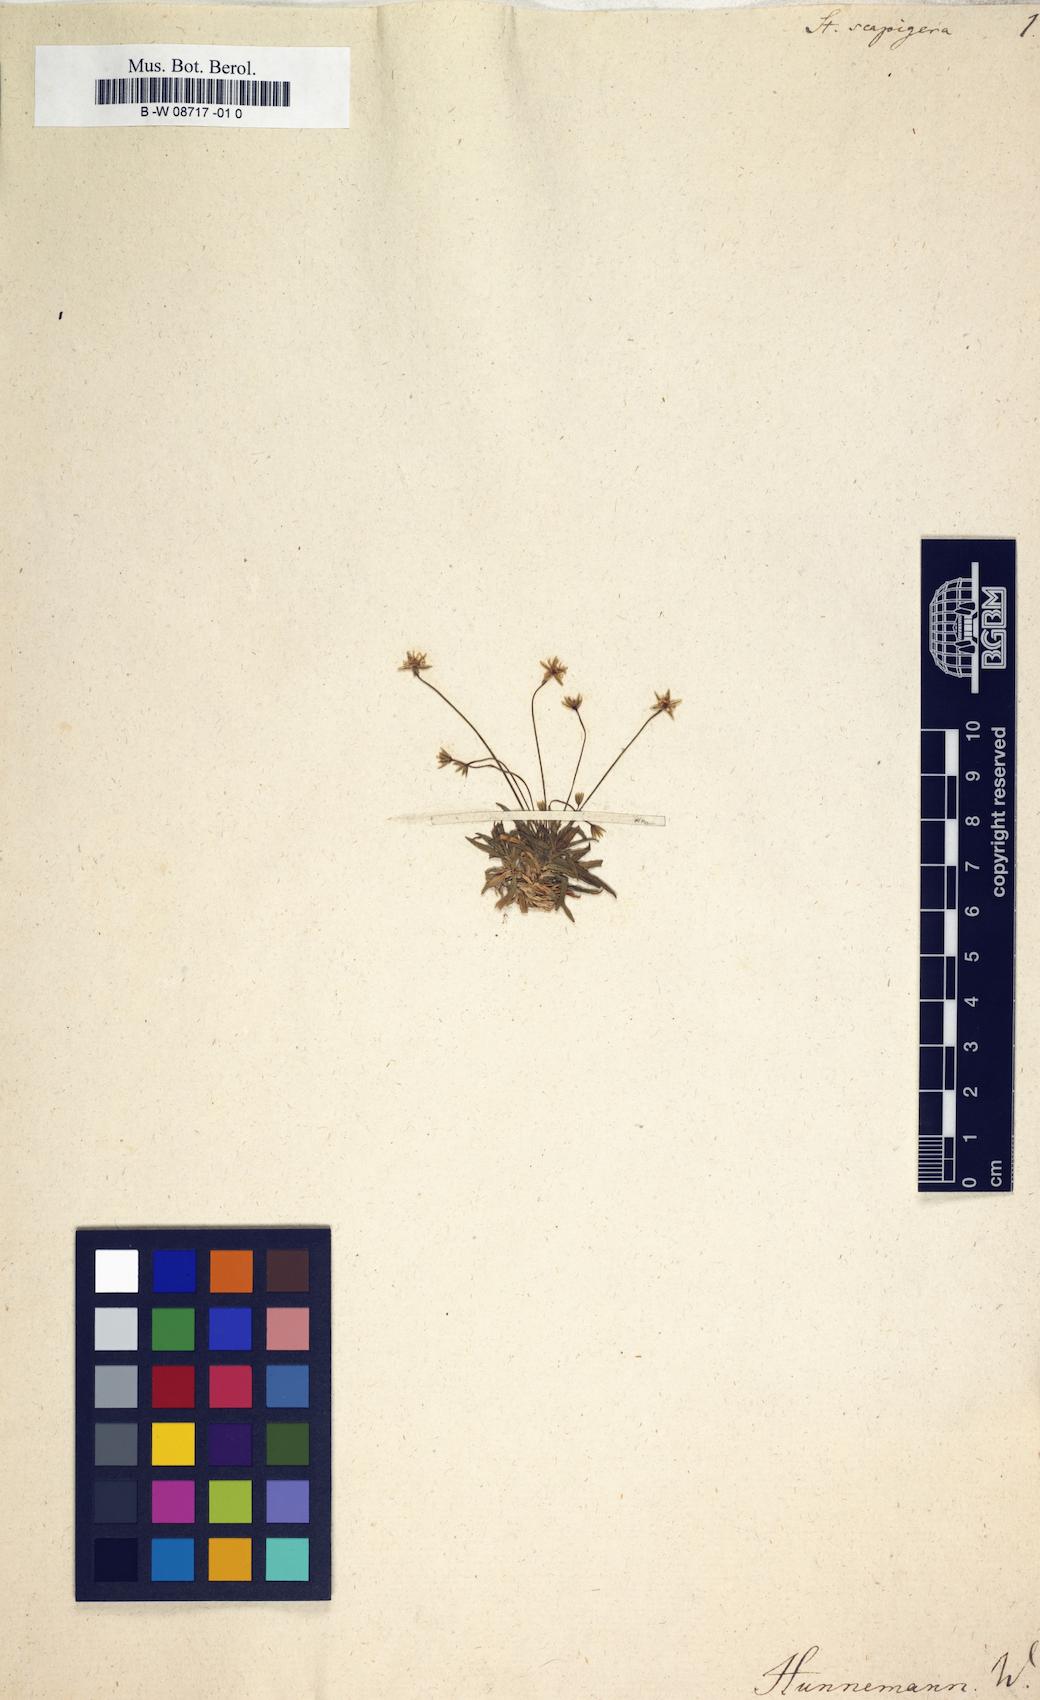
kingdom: Plantae
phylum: Tracheophyta
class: Magnoliopsida
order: Caryophyllales
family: Caryophyllaceae
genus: Stellaria
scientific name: Stellaria graminea
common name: Grass-like starwort
